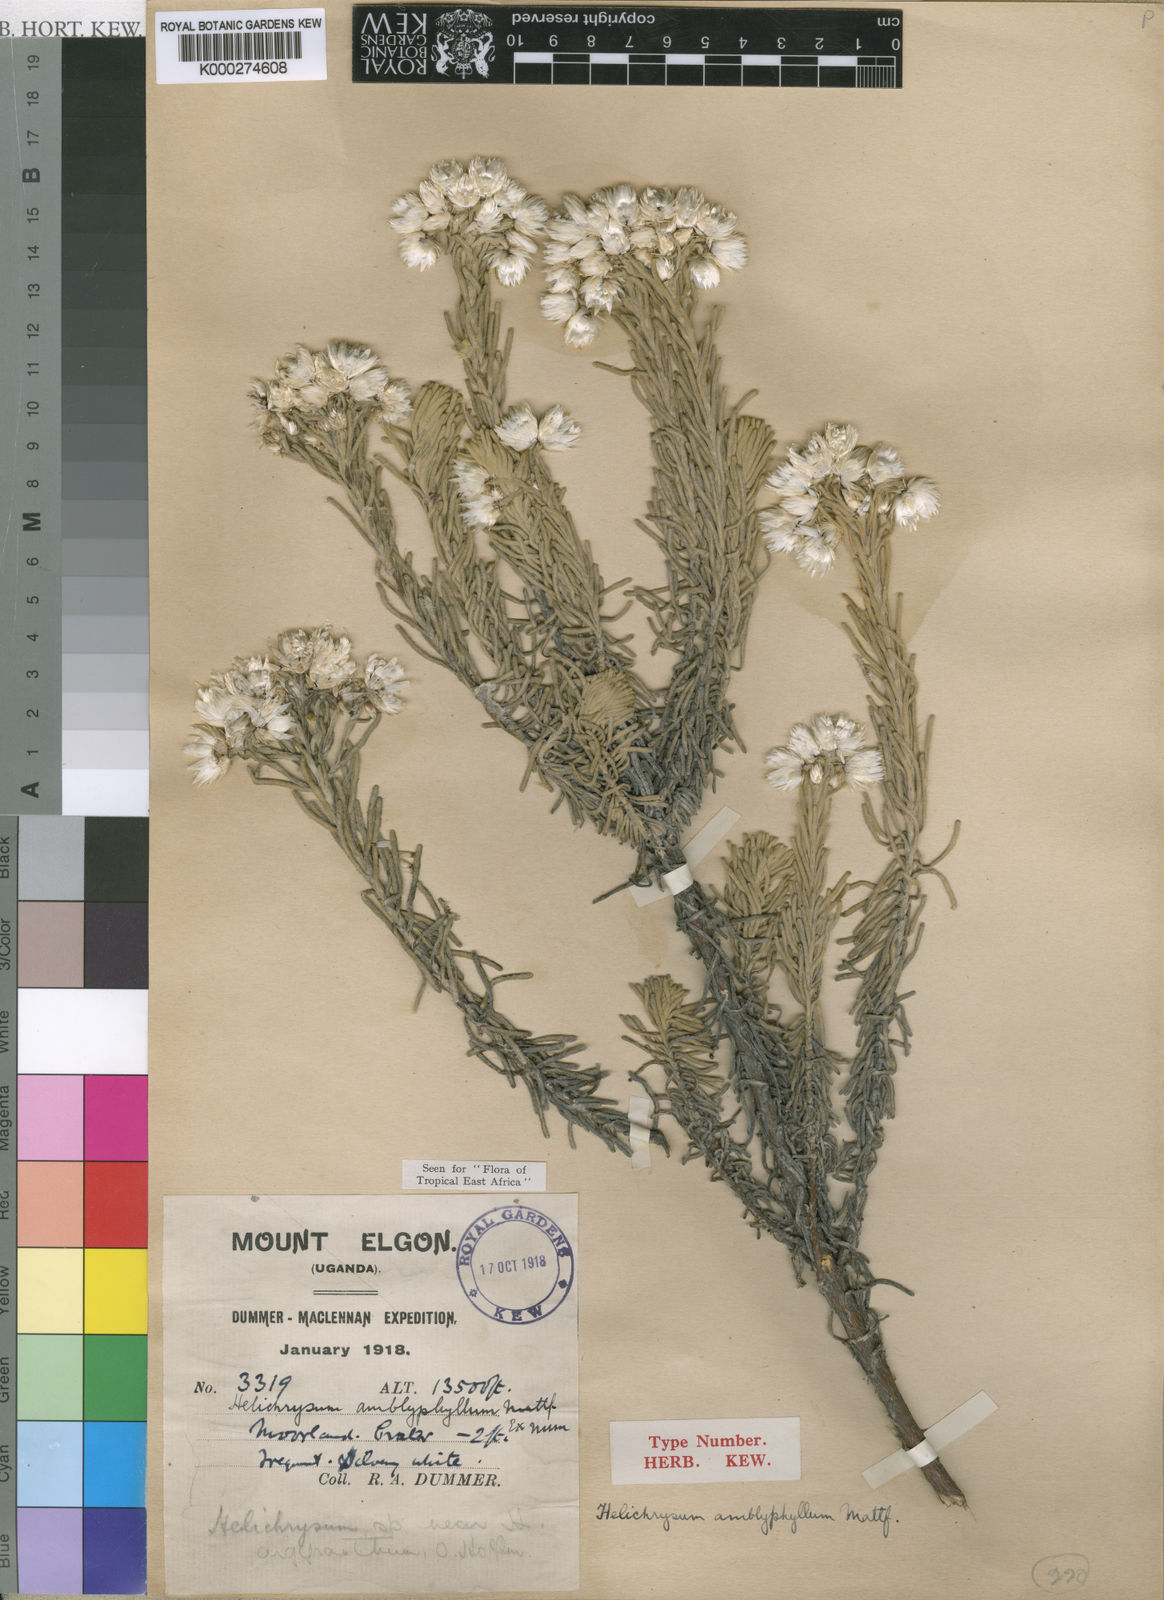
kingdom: Plantae
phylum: Tracheophyta
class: Magnoliopsida
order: Asterales
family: Asteraceae
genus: Helichrysum
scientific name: Helichrysum amblyphyllum
